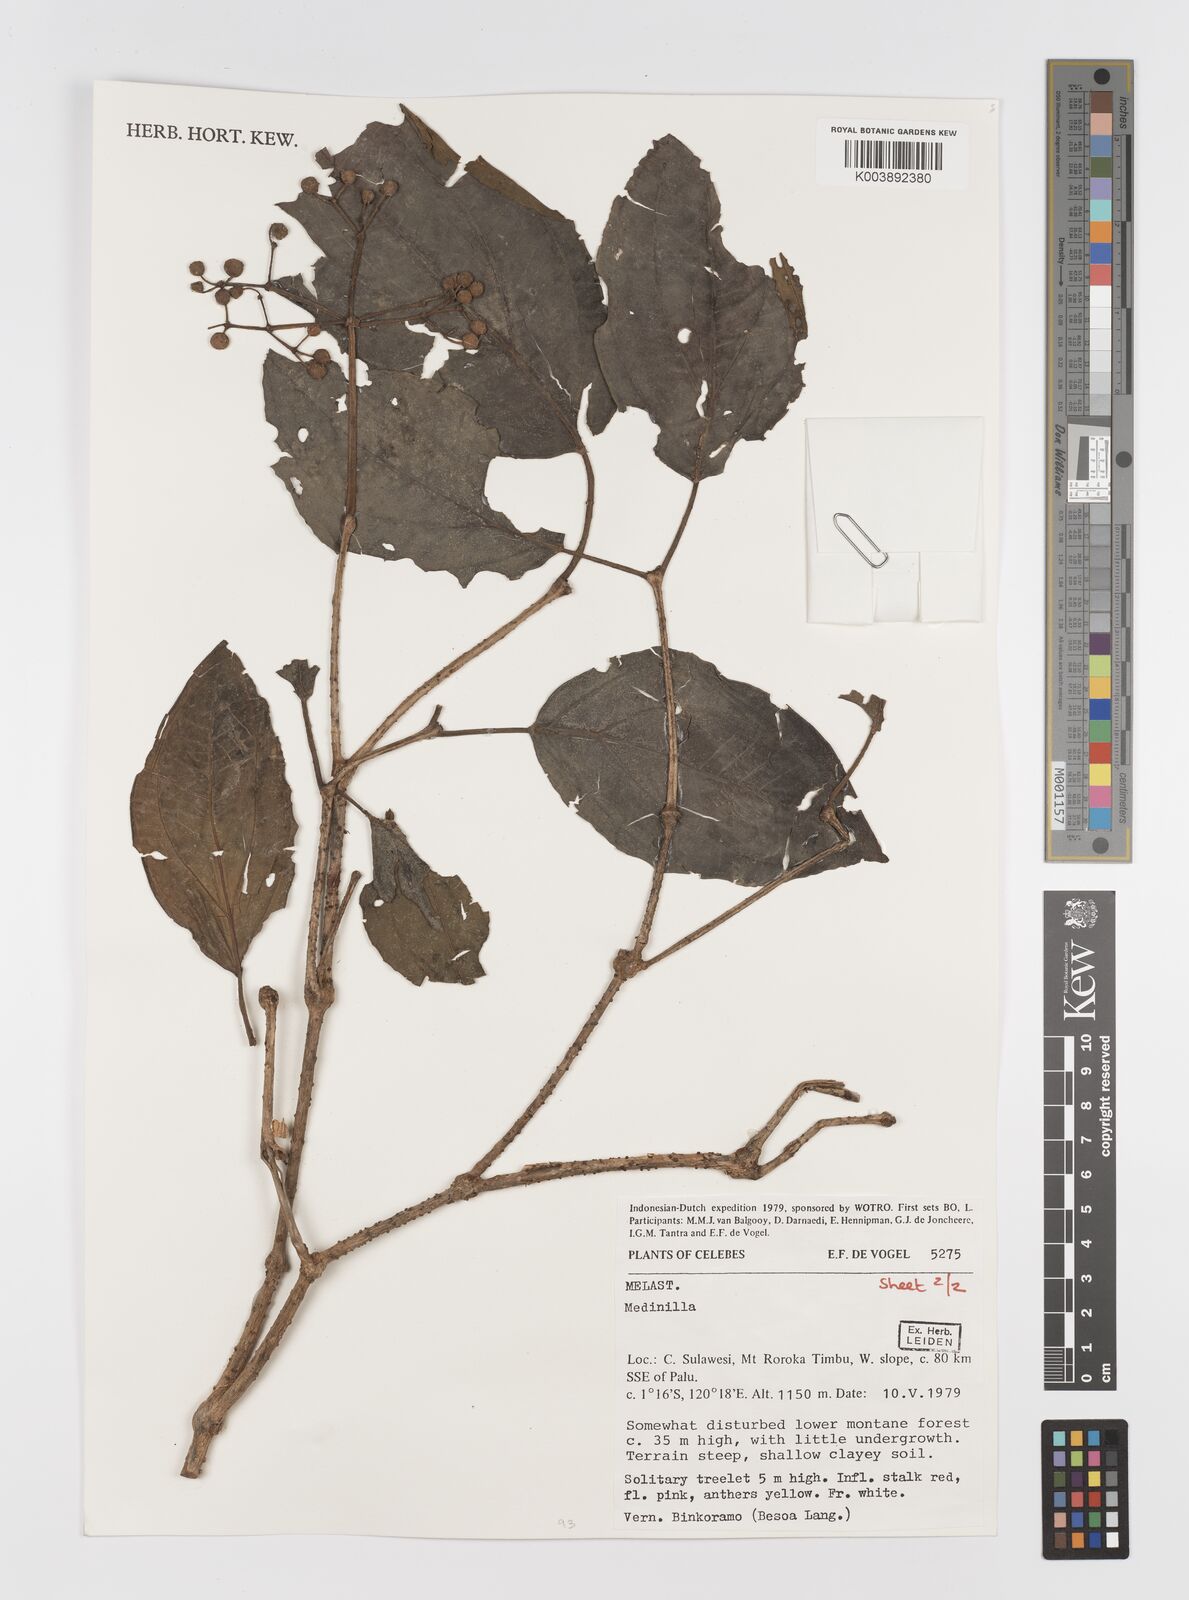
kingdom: Plantae
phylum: Tracheophyta
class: Magnoliopsida
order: Myrtales
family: Melastomataceae
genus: Medinilla
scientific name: Medinilla
